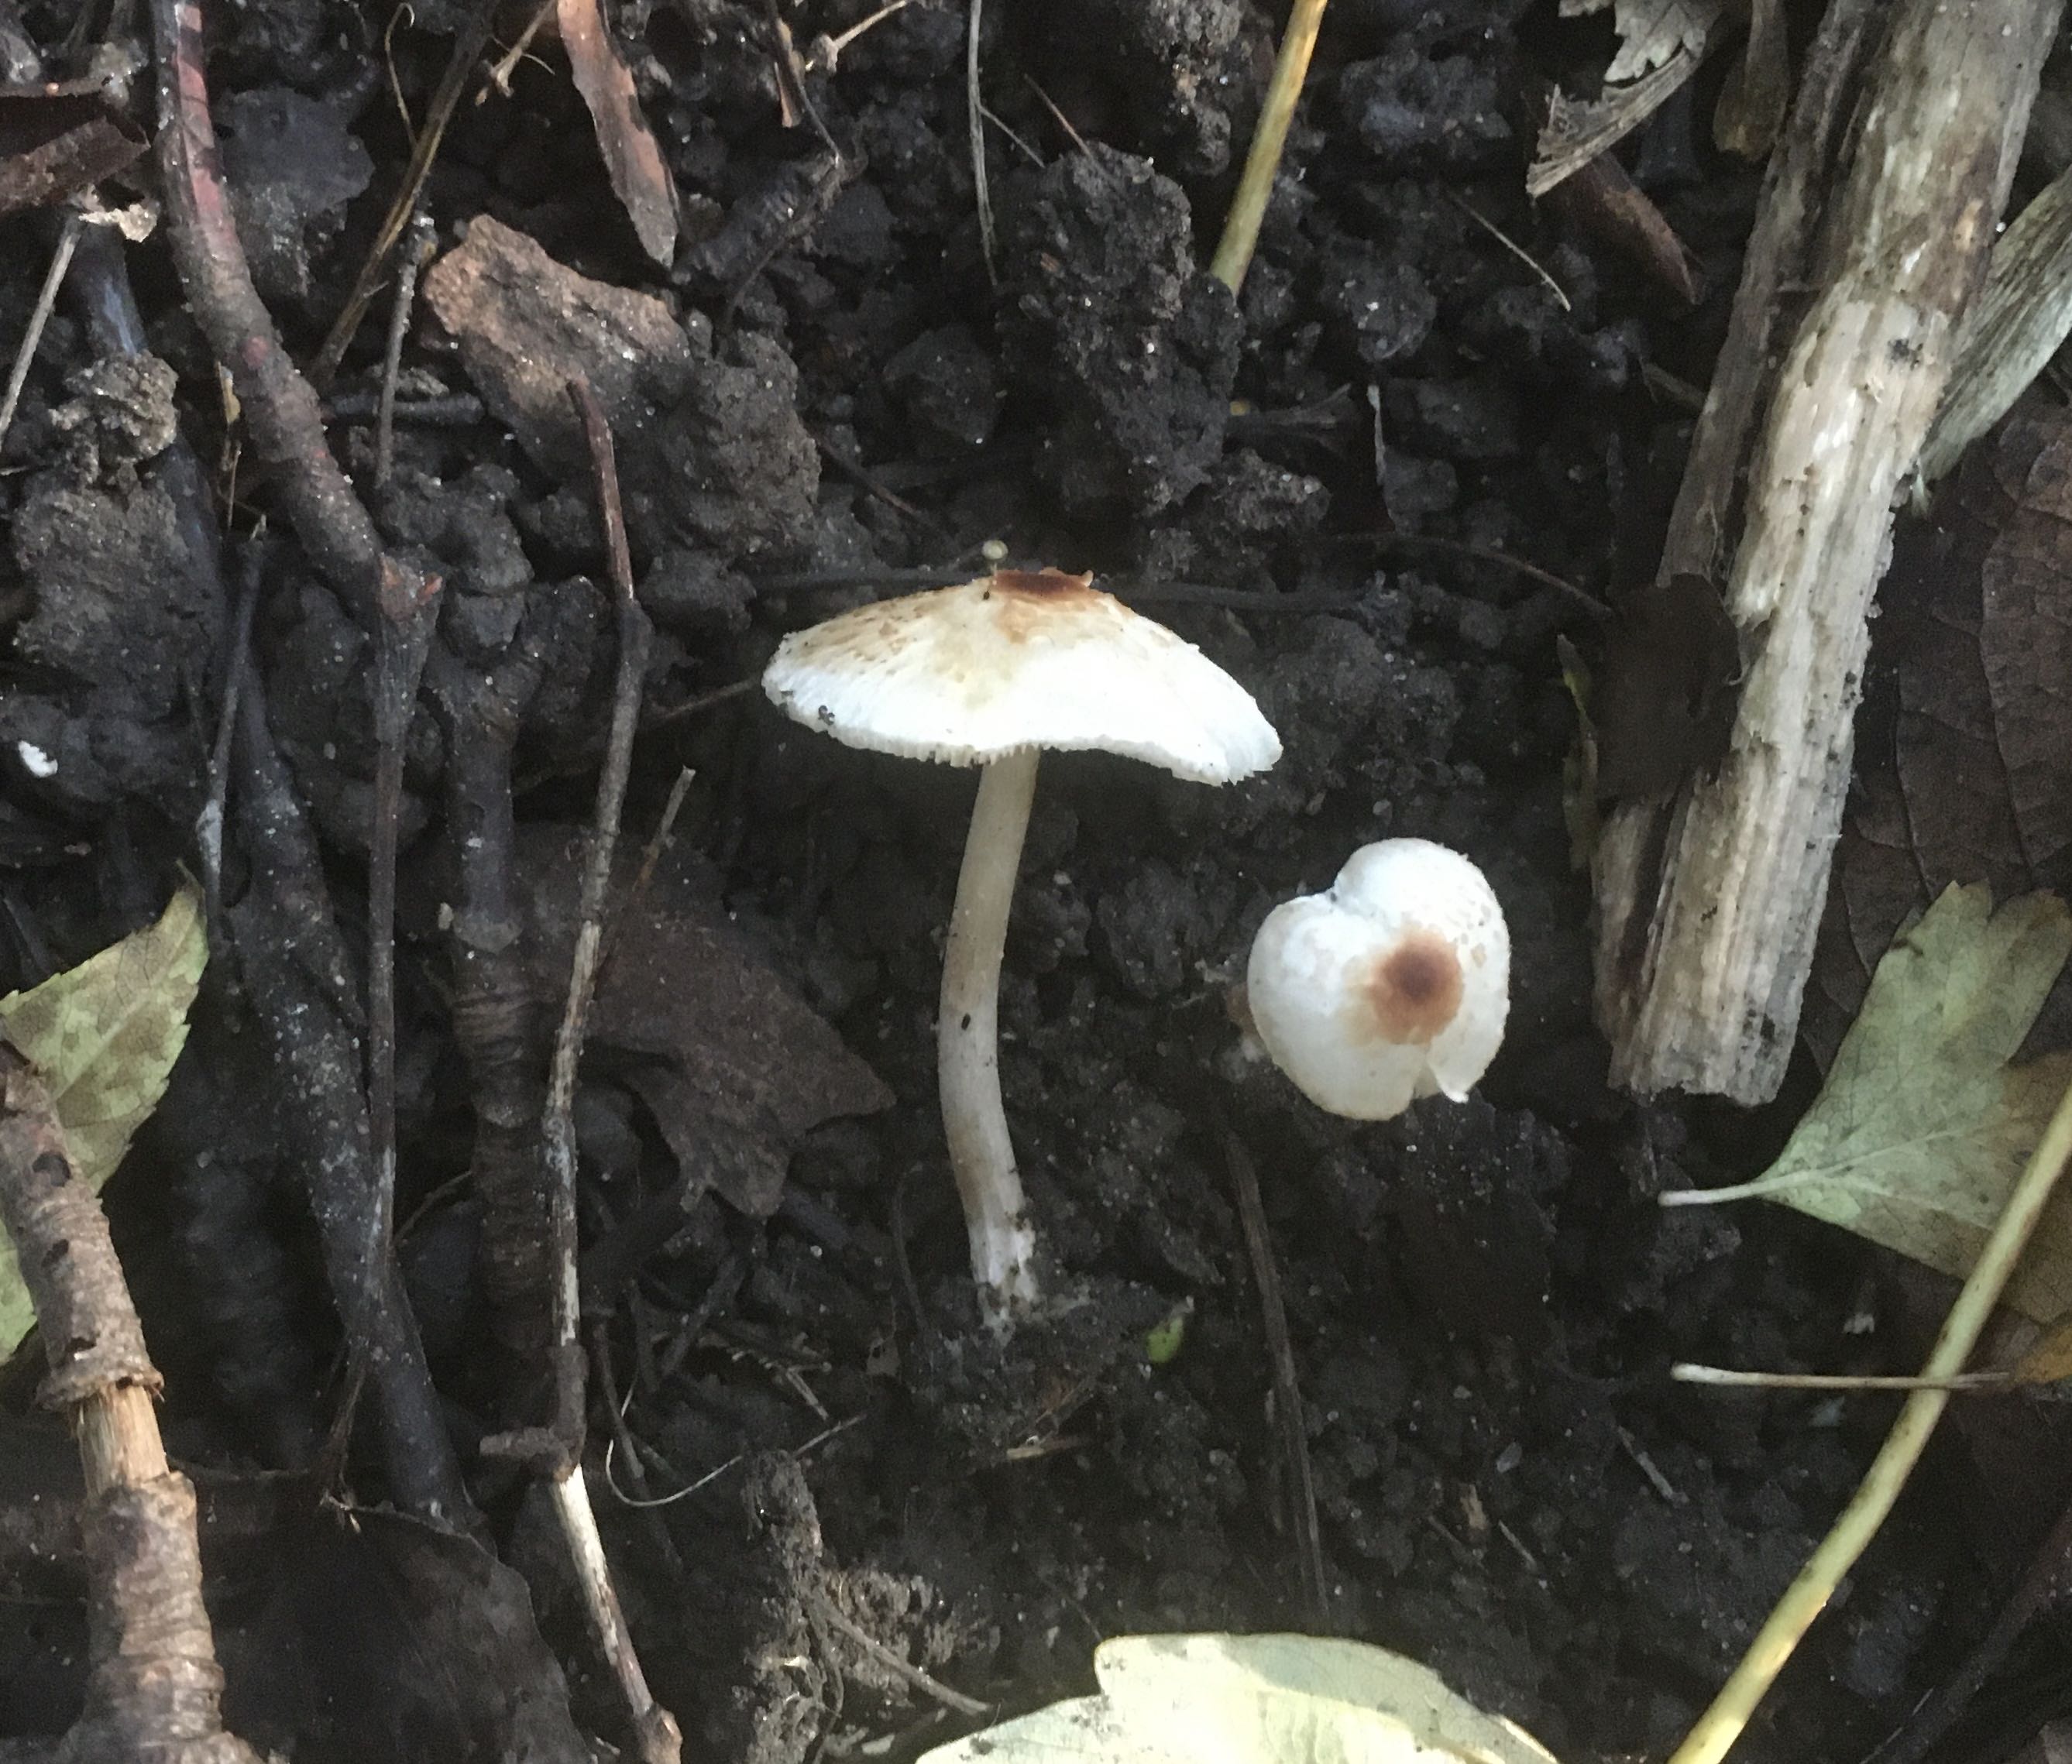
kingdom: Fungi
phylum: Basidiomycota
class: Agaricomycetes
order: Agaricales
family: Agaricaceae
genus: Lepiota
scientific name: Lepiota cristata
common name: stinkende parasolhat
